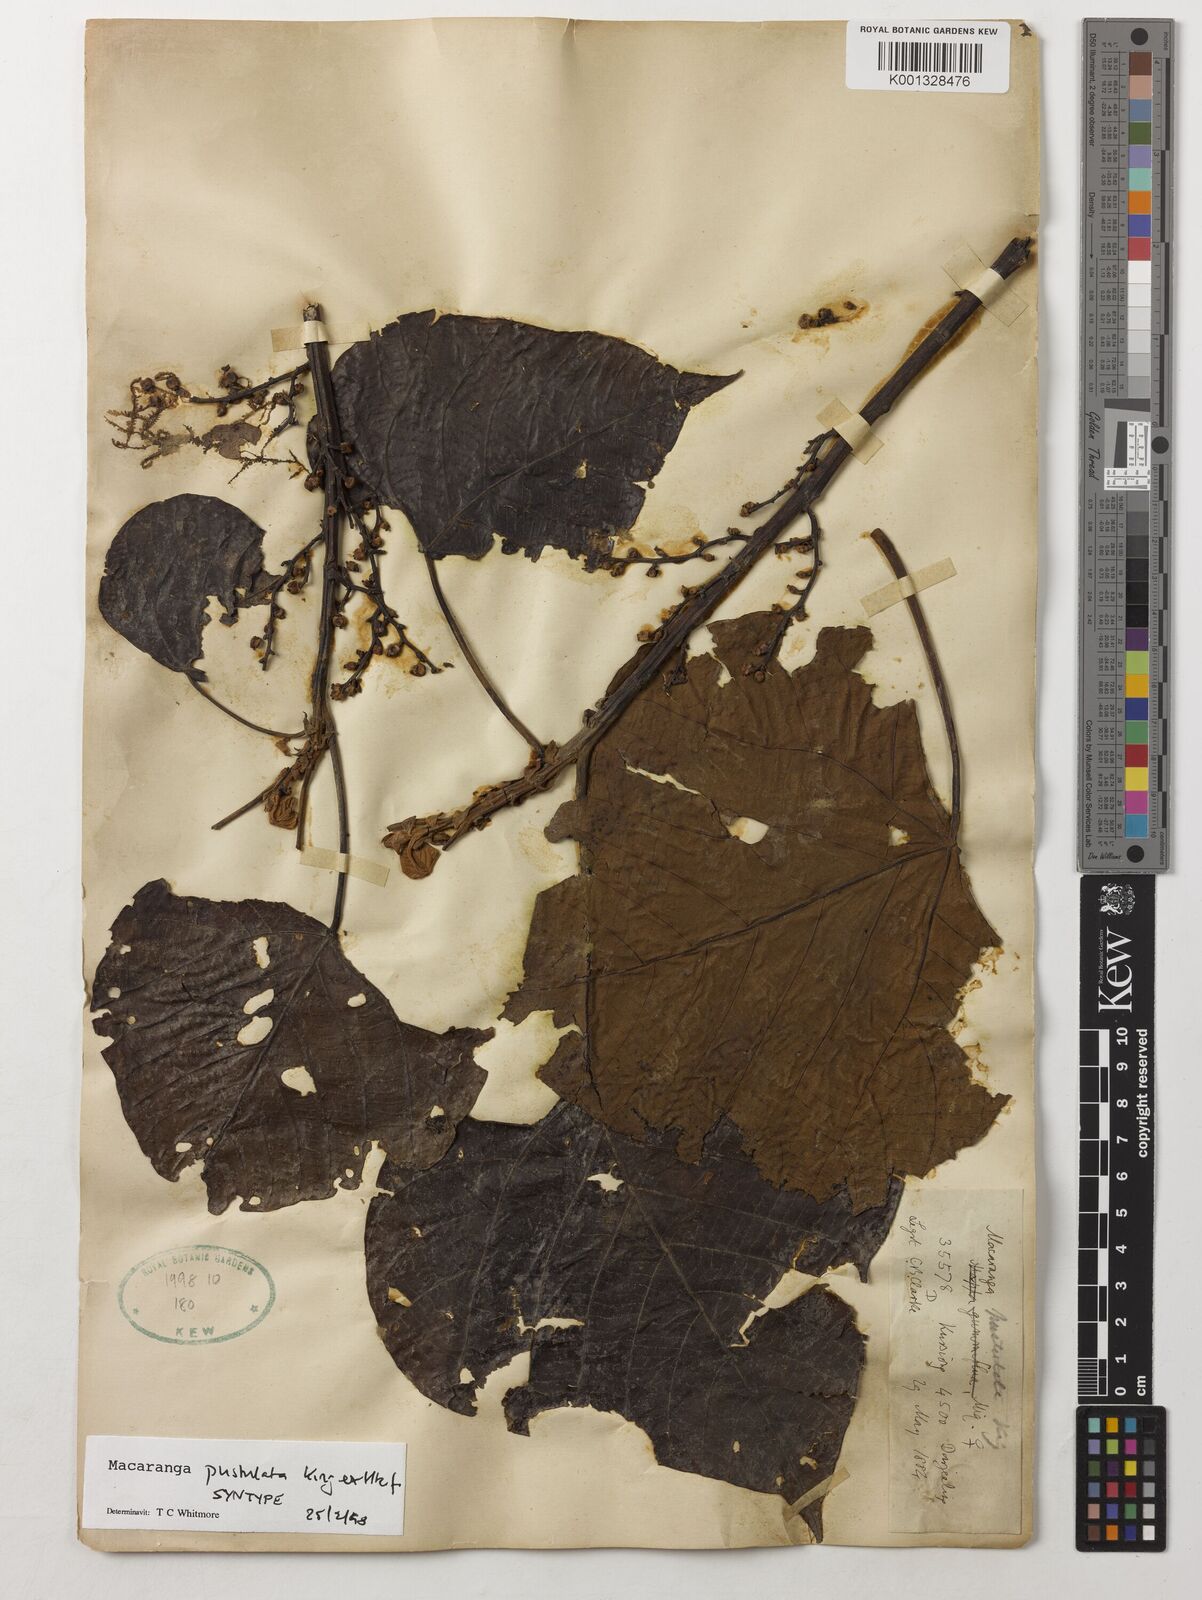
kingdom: Plantae
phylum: Tracheophyta
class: Magnoliopsida
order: Malpighiales
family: Euphorbiaceae
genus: Macaranga
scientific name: Macaranga denticulata
